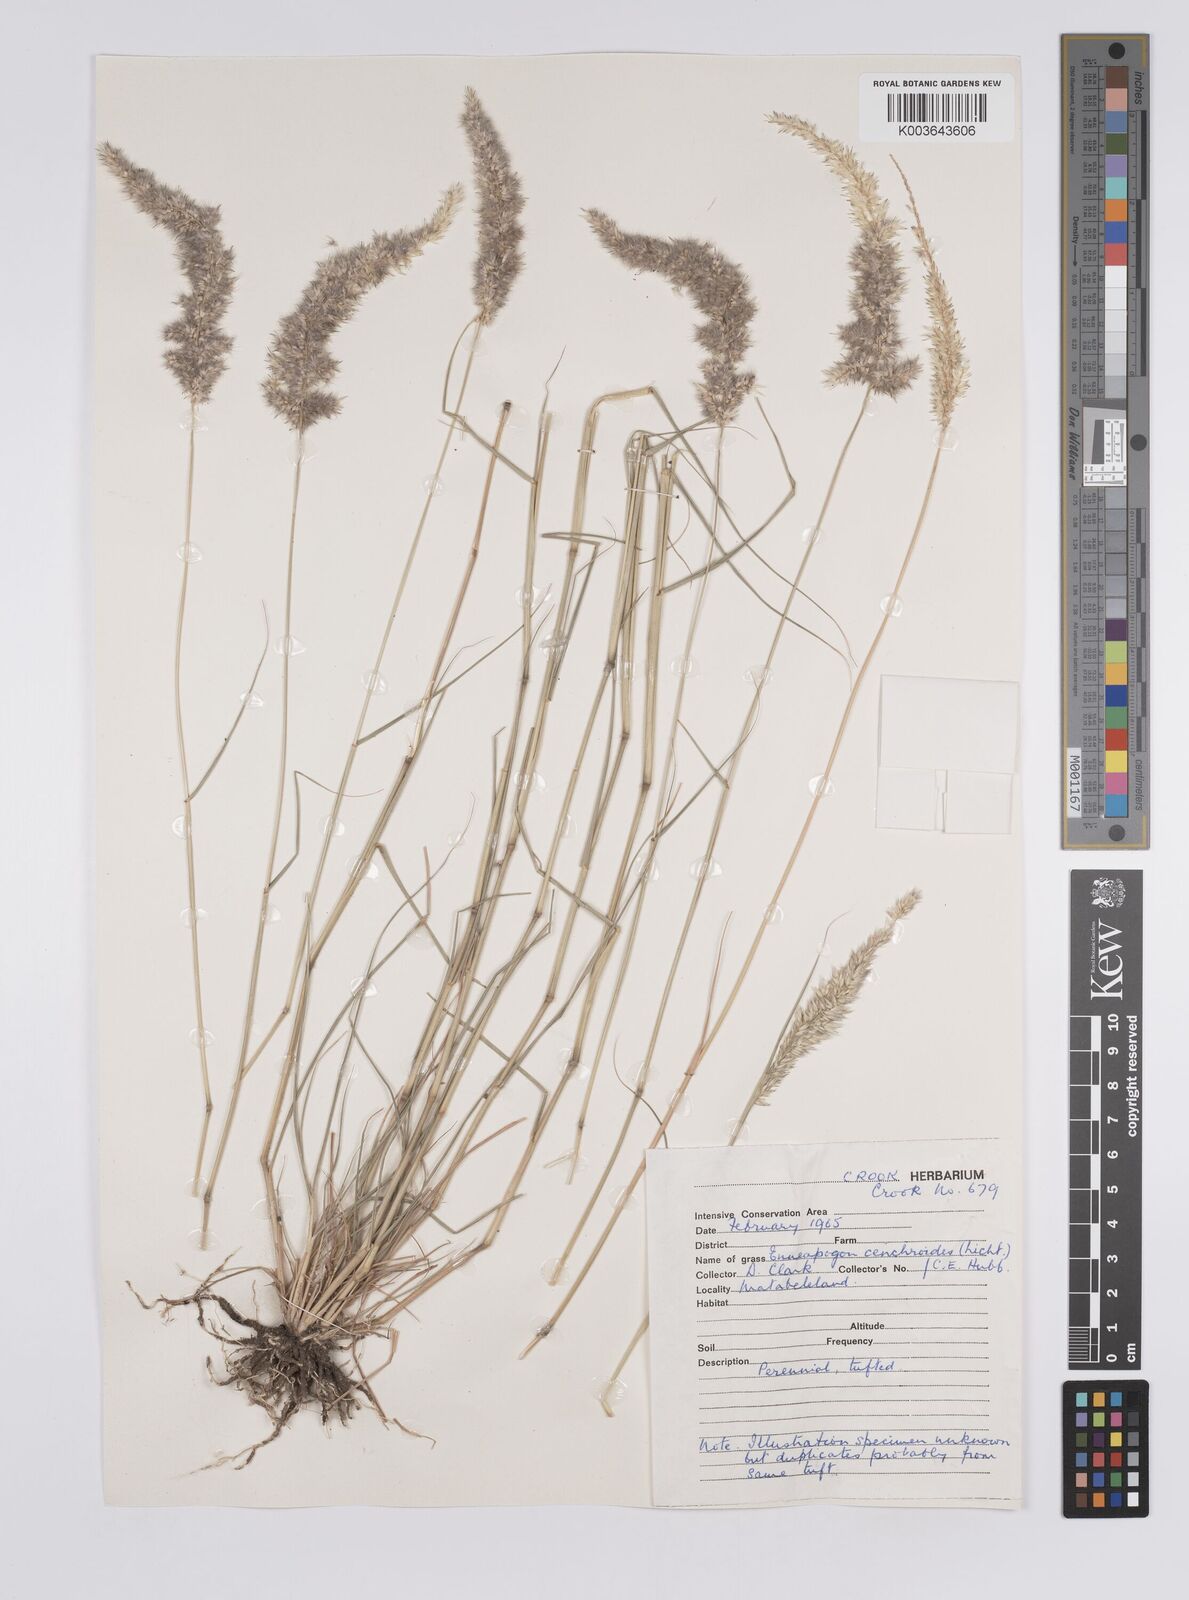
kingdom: Plantae
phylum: Tracheophyta
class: Liliopsida
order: Poales
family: Poaceae
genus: Enneapogon
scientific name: Enneapogon cenchroides
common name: Soft feather pappusgrass
